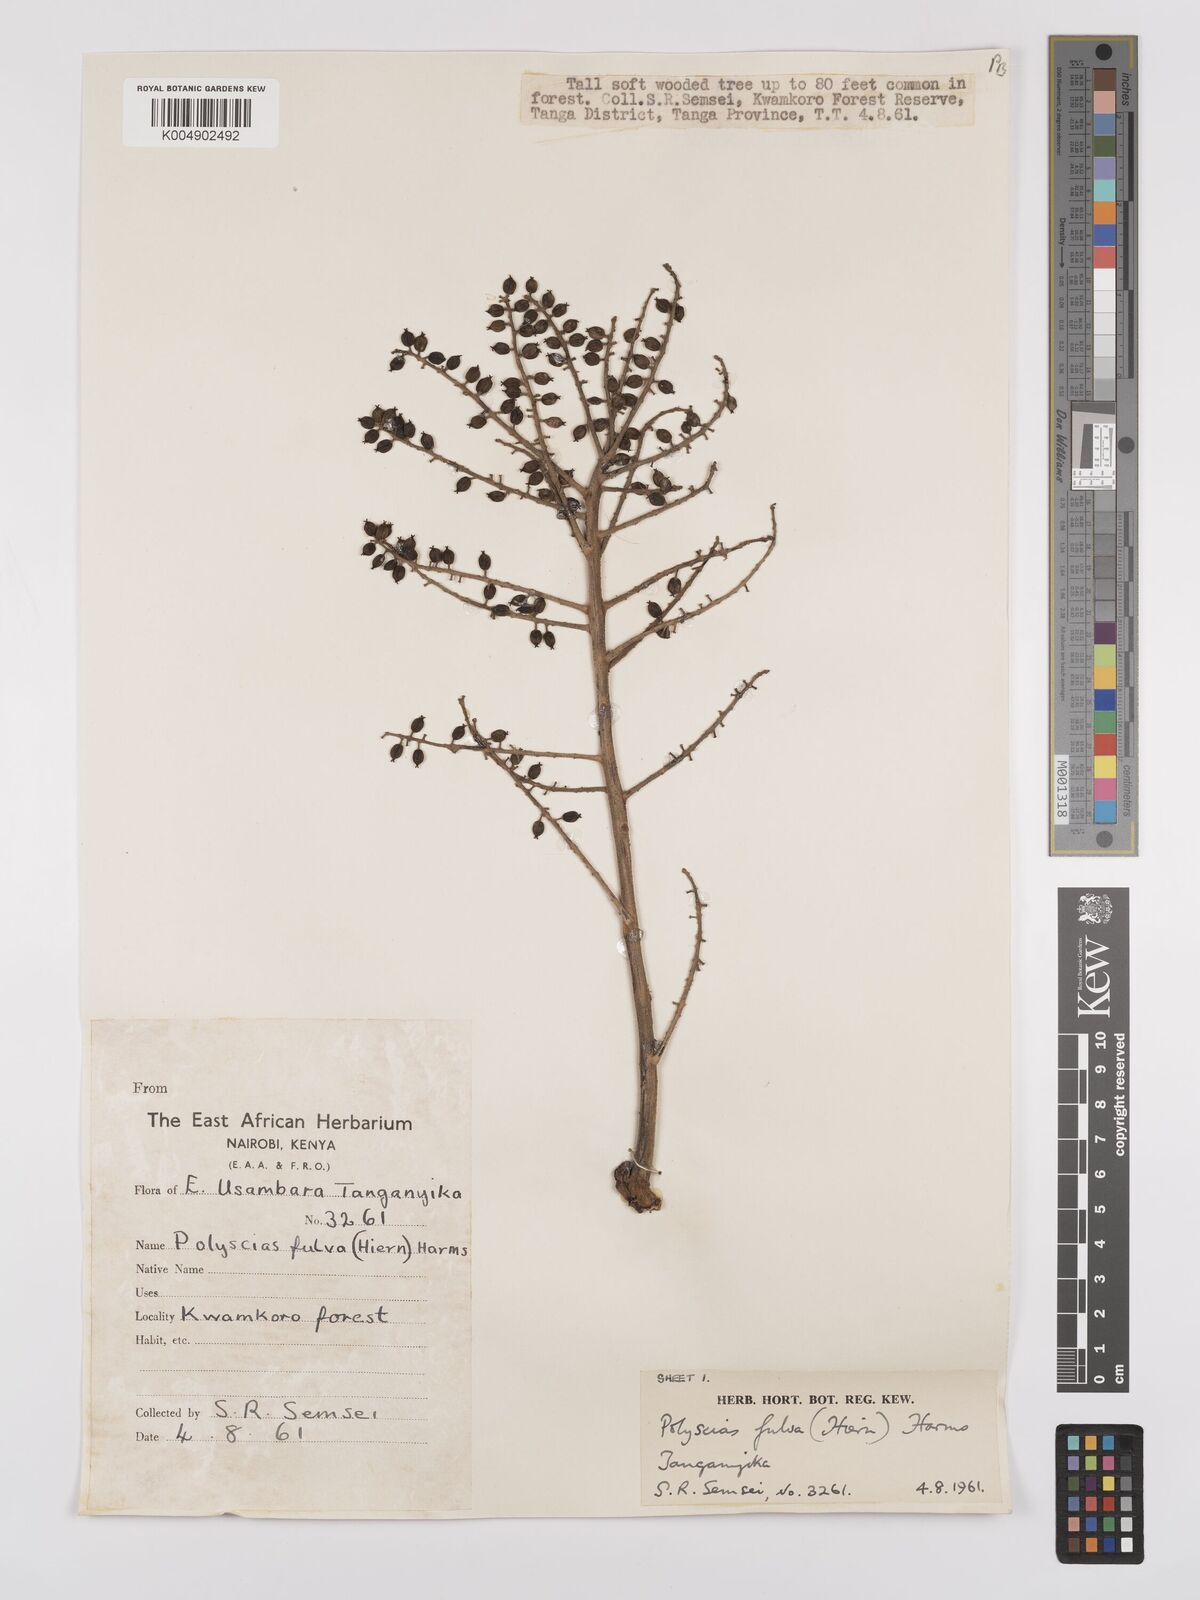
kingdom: Plantae
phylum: Tracheophyta
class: Magnoliopsida
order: Apiales
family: Araliaceae
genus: Polyscias
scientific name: Polyscias fulva
